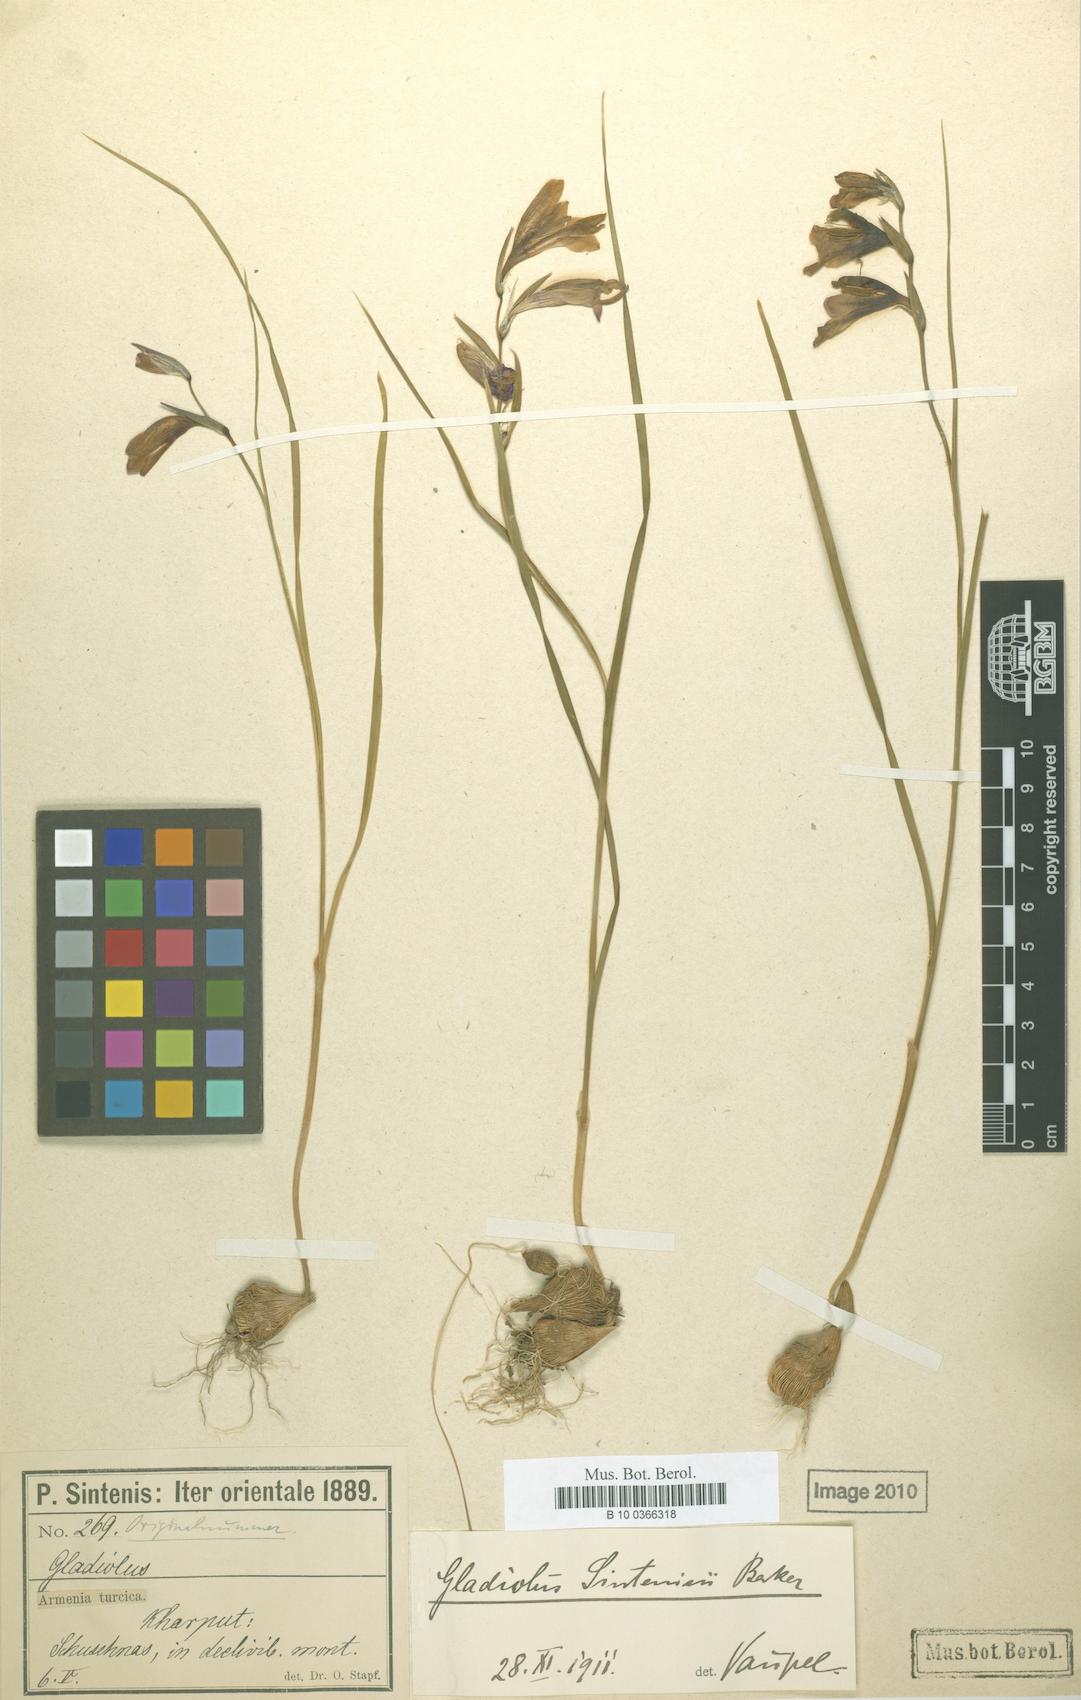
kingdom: Plantae
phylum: Tracheophyta
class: Liliopsida
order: Asparagales
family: Iridaceae
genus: Gladiolus
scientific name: Gladiolus atroviolaceus
